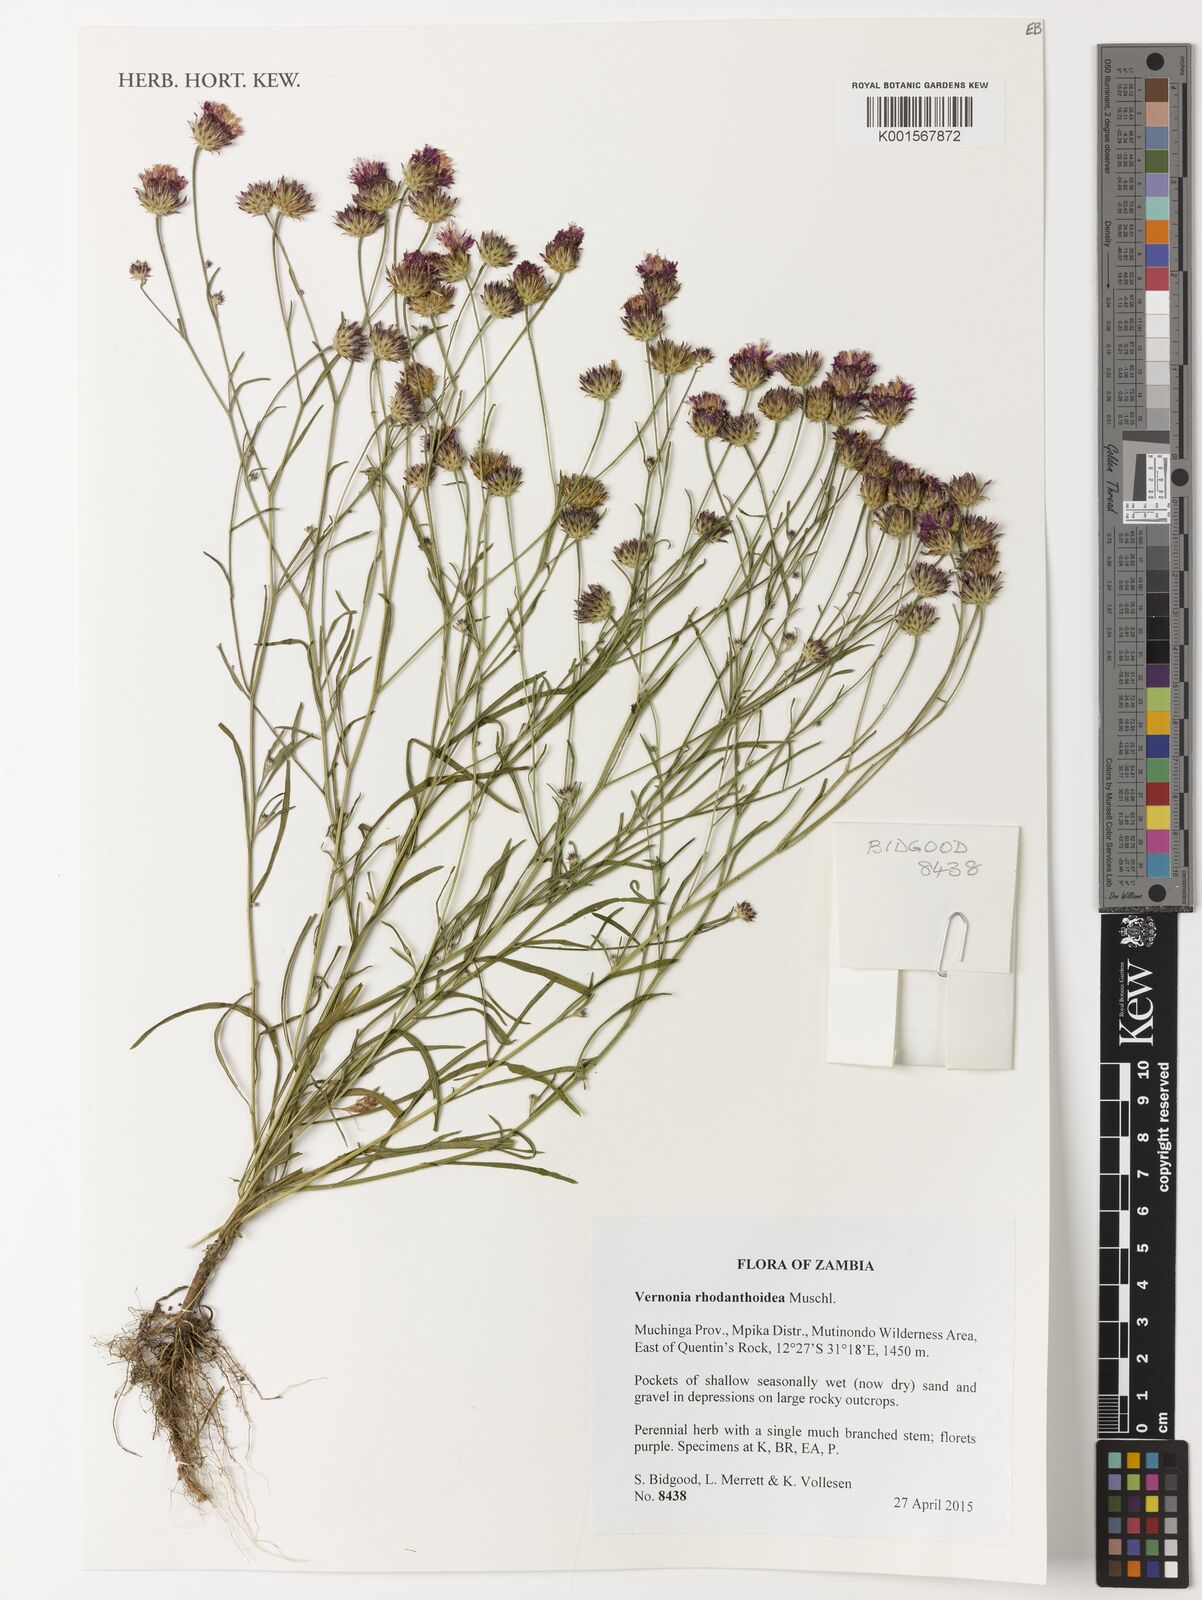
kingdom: Plantae
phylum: Tracheophyta
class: Magnoliopsida
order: Asterales
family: Asteraceae
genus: Vernonia
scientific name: Vernonia rhodanthoidea
